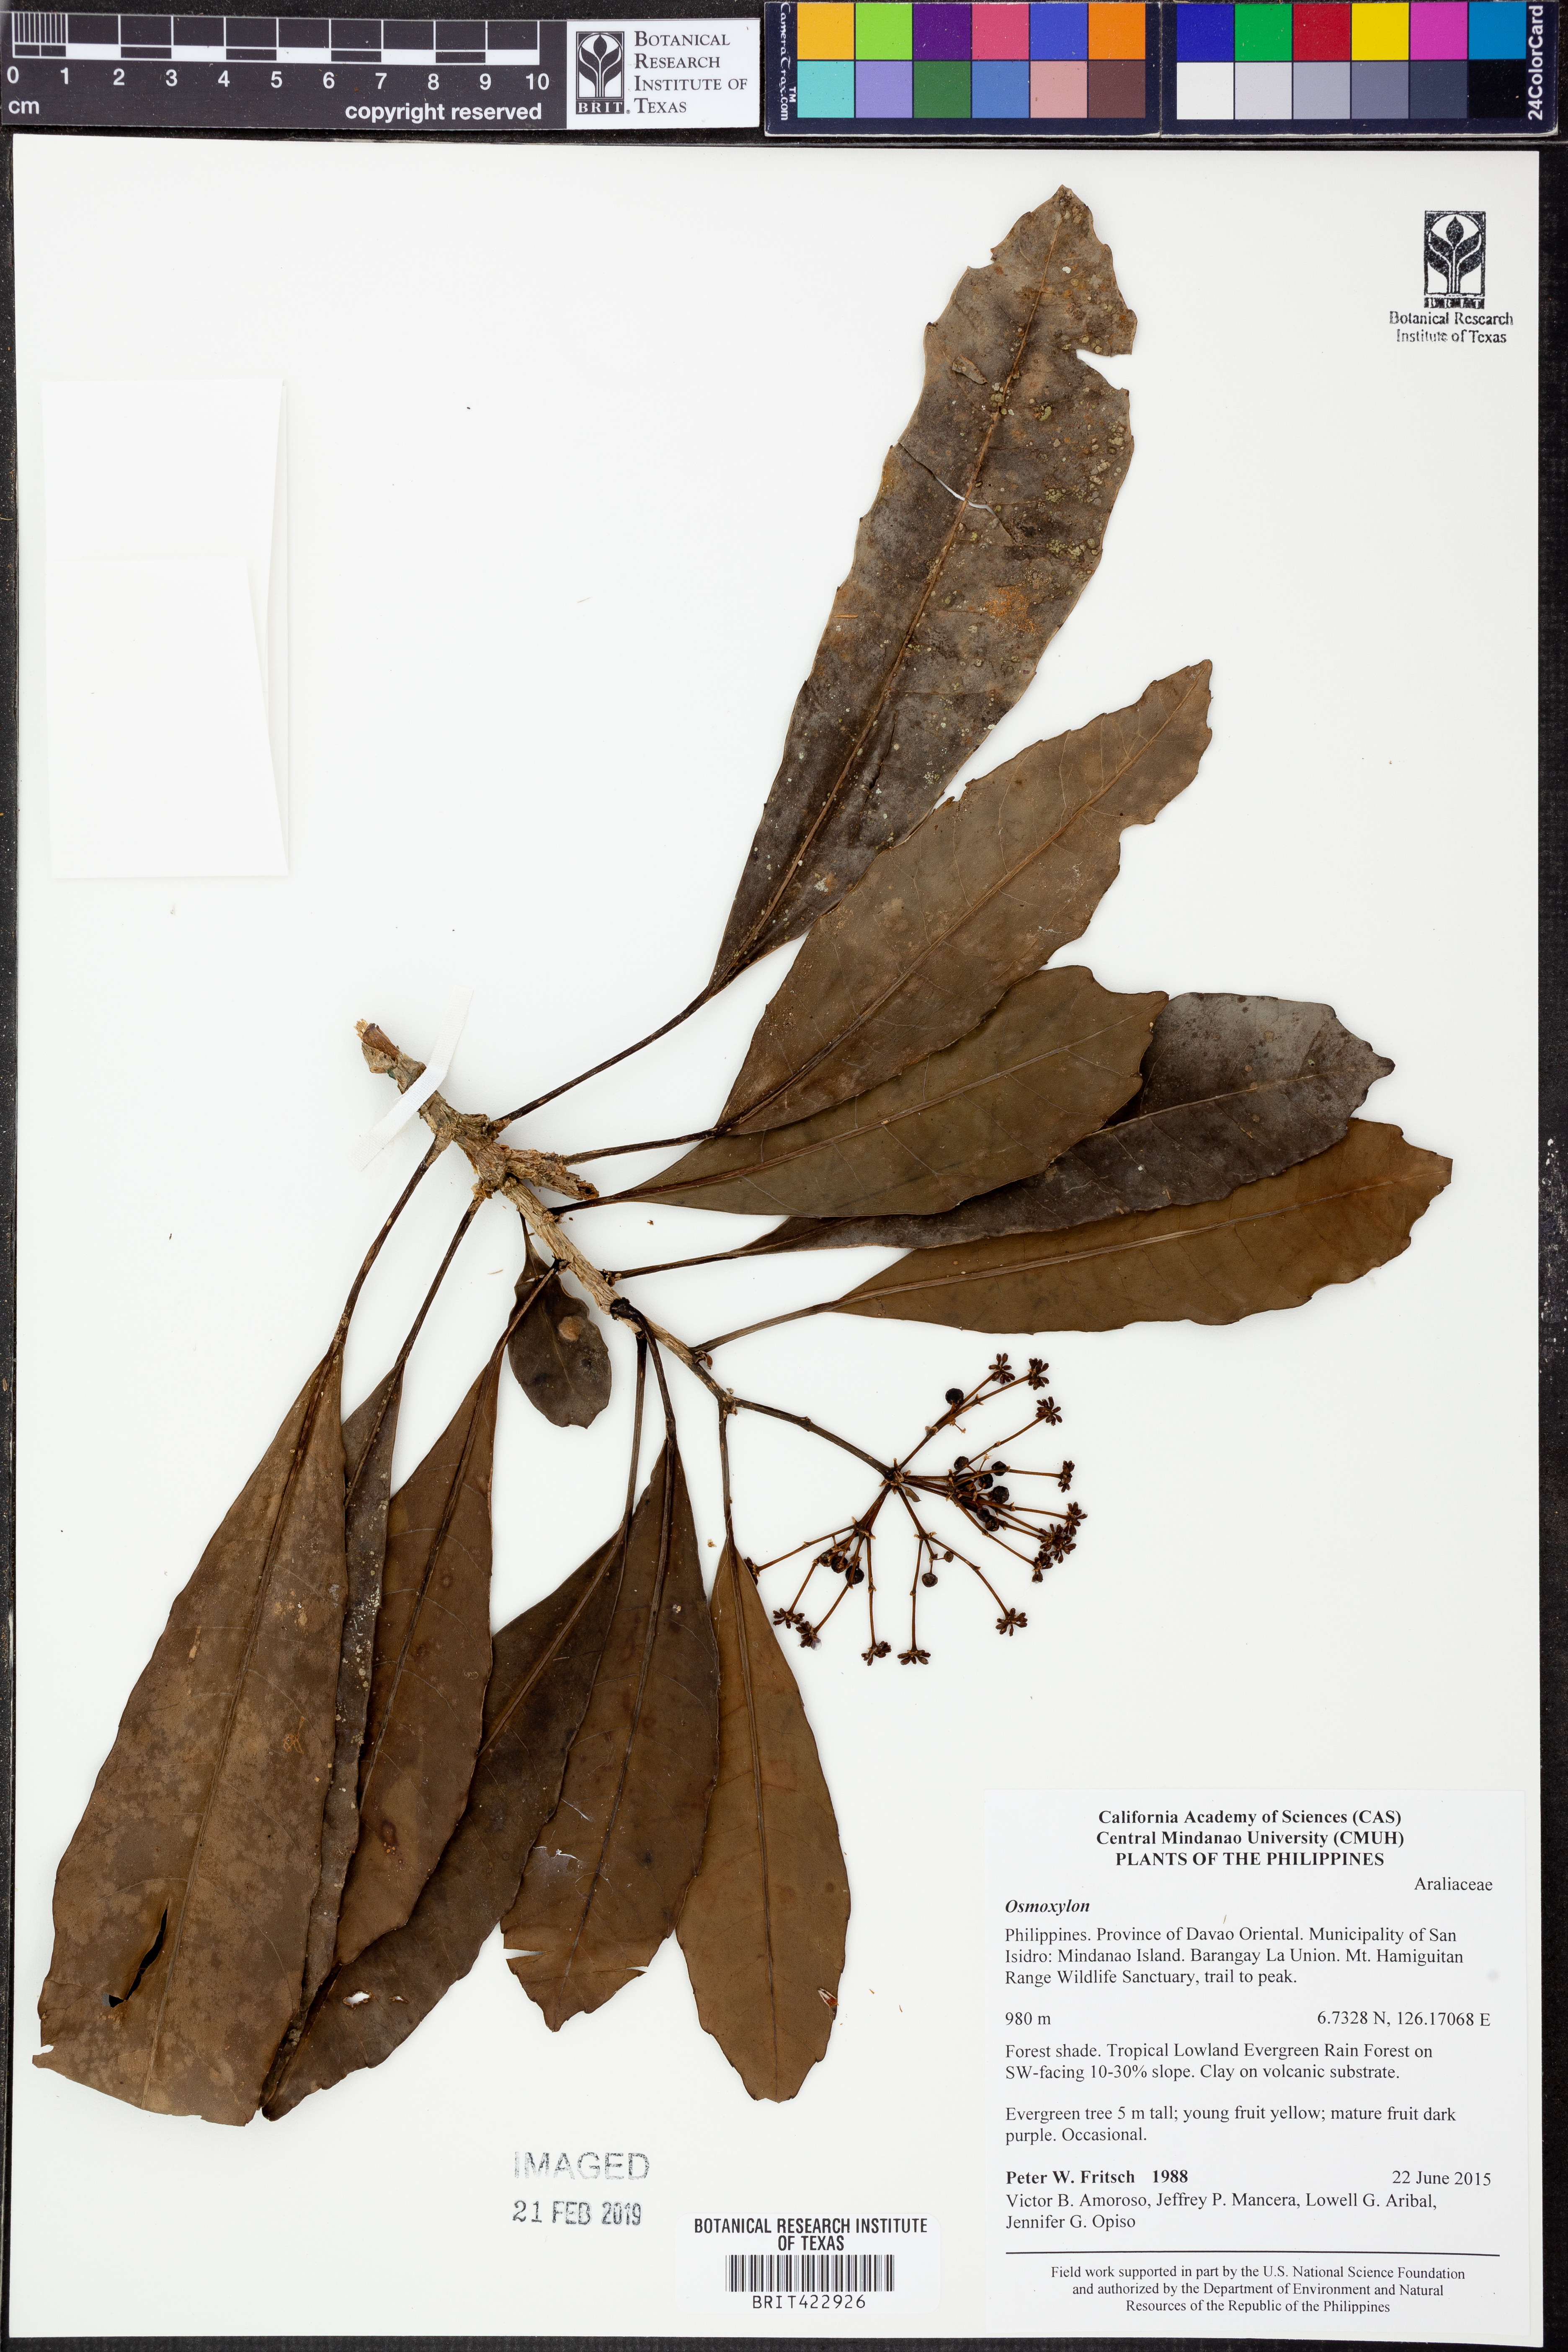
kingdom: Plantae
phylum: Tracheophyta
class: Magnoliopsida
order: Apiales
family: Araliaceae
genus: Osmoxylon
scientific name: Osmoxylon
